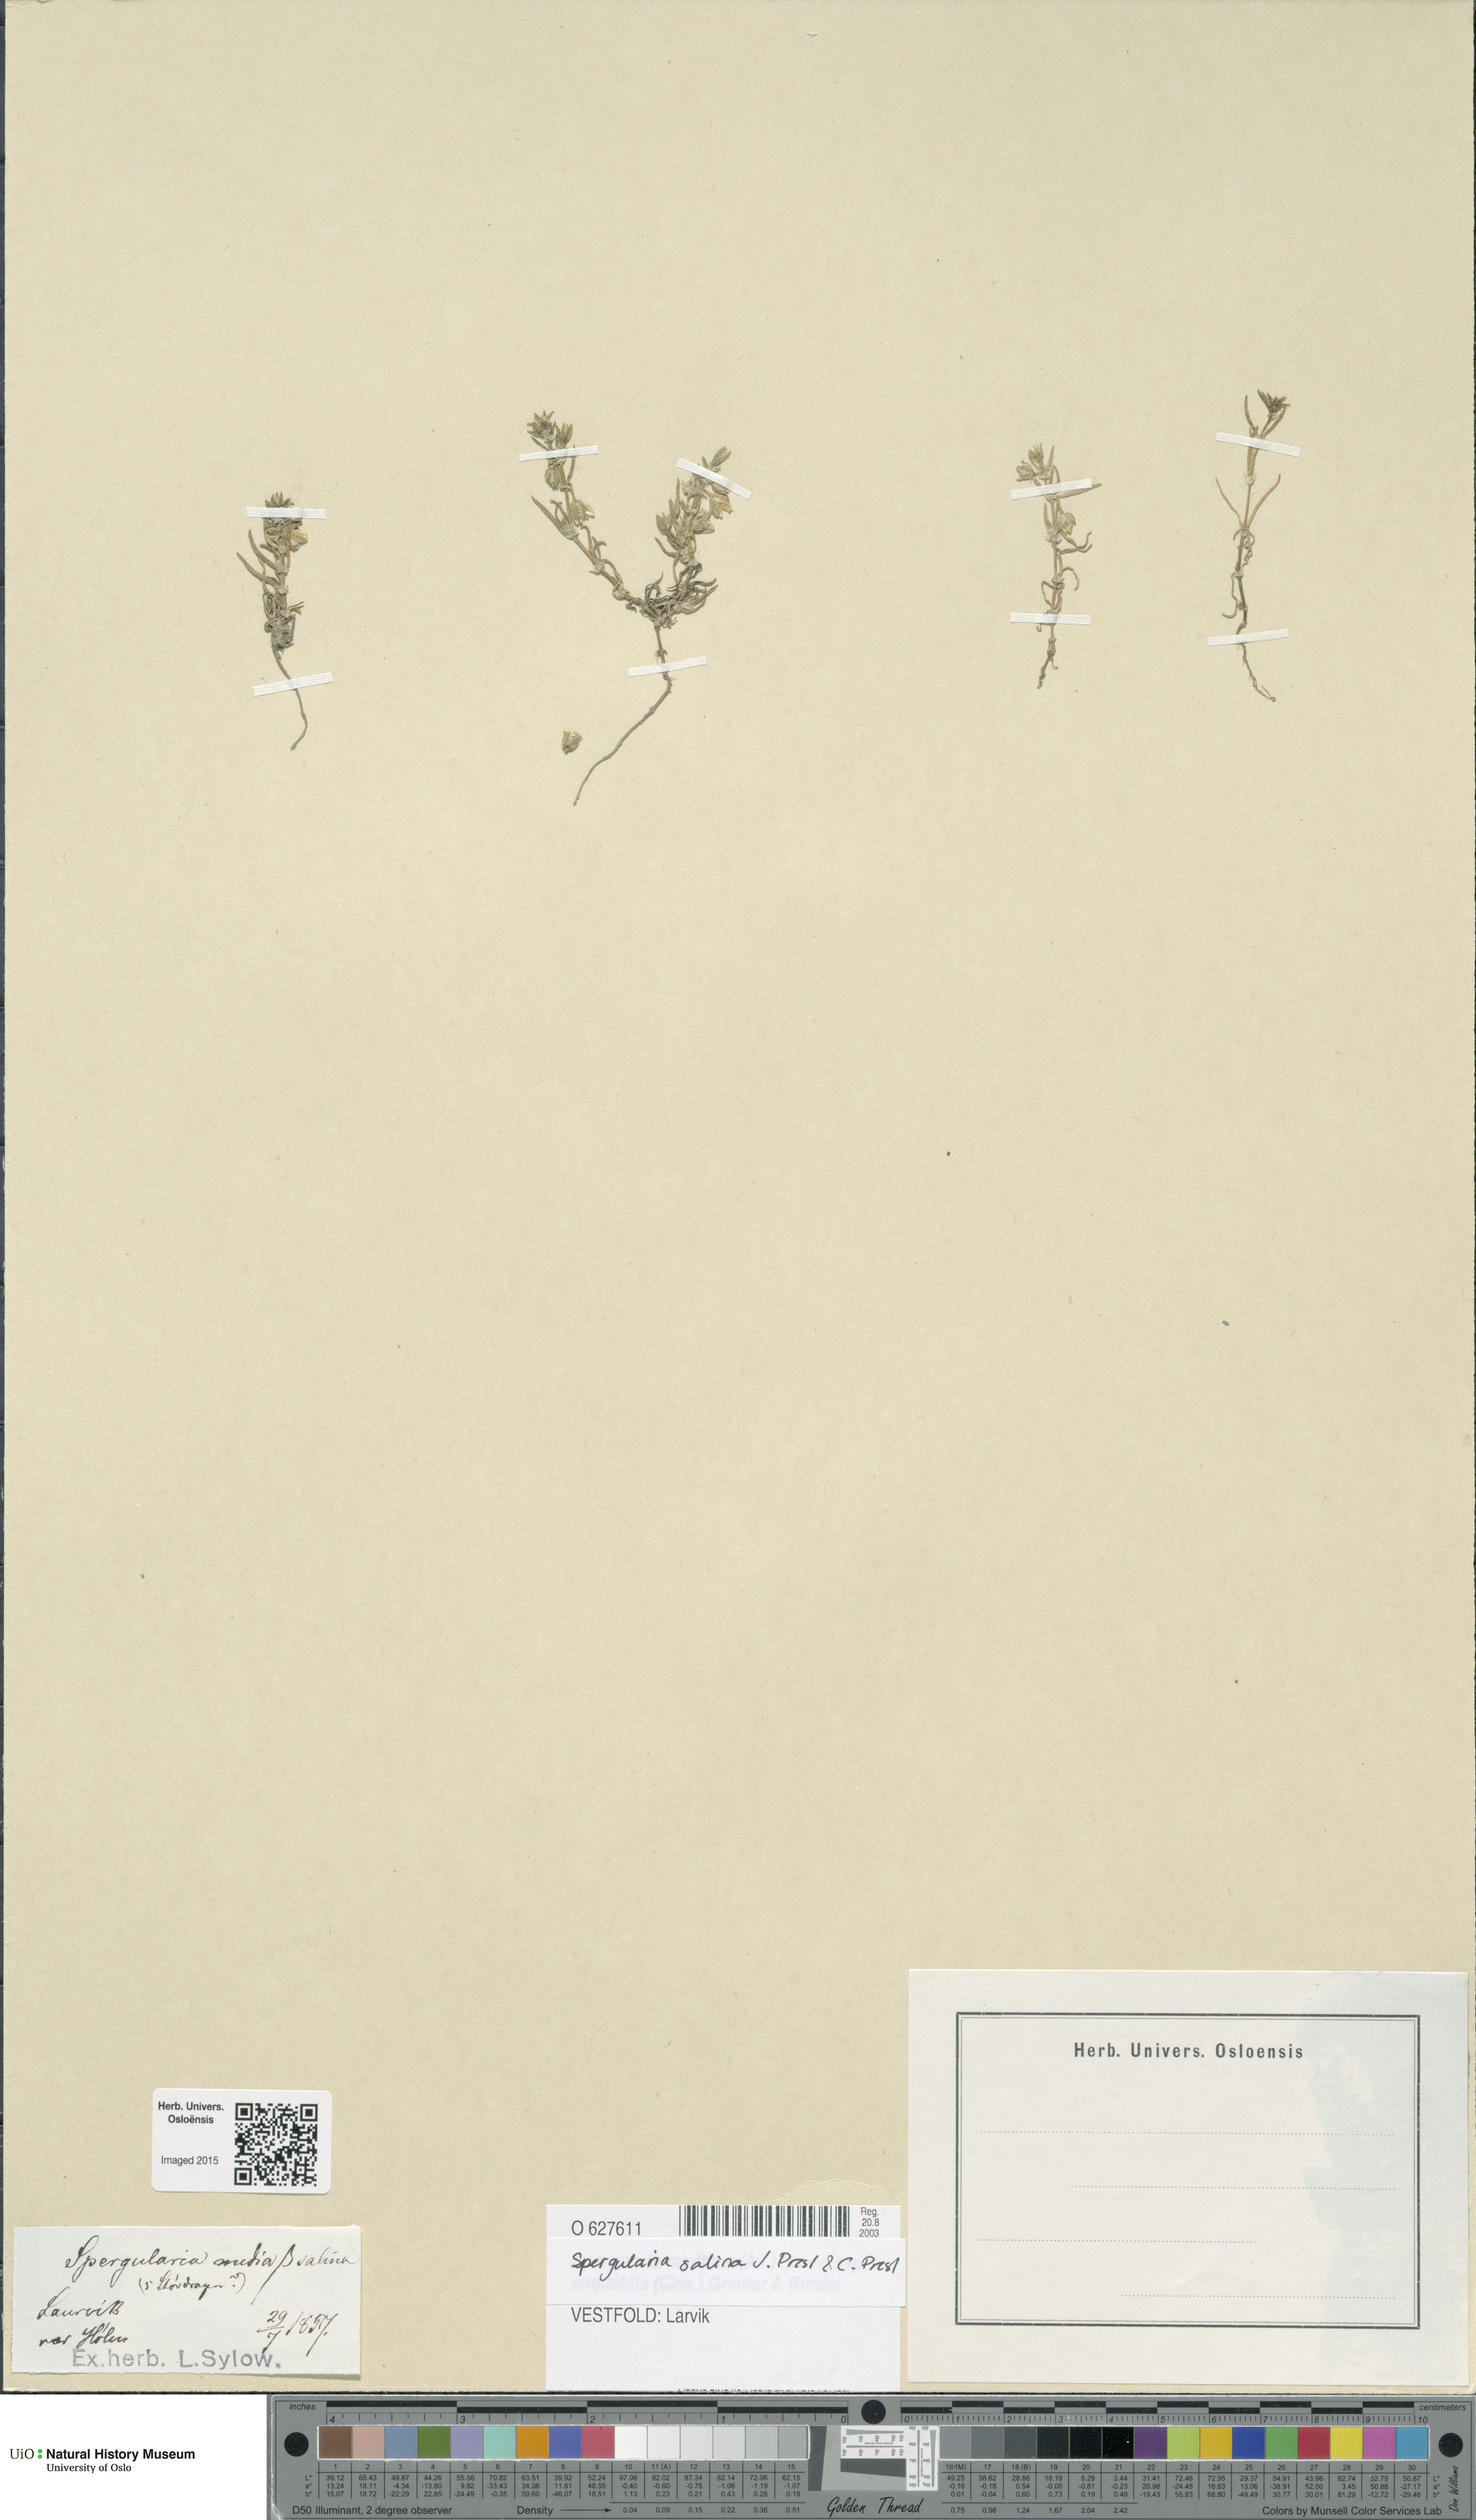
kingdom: Plantae
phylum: Tracheophyta
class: Magnoliopsida
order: Caryophyllales
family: Caryophyllaceae
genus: Spergularia
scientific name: Spergularia marina
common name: Lesser sea-spurrey
